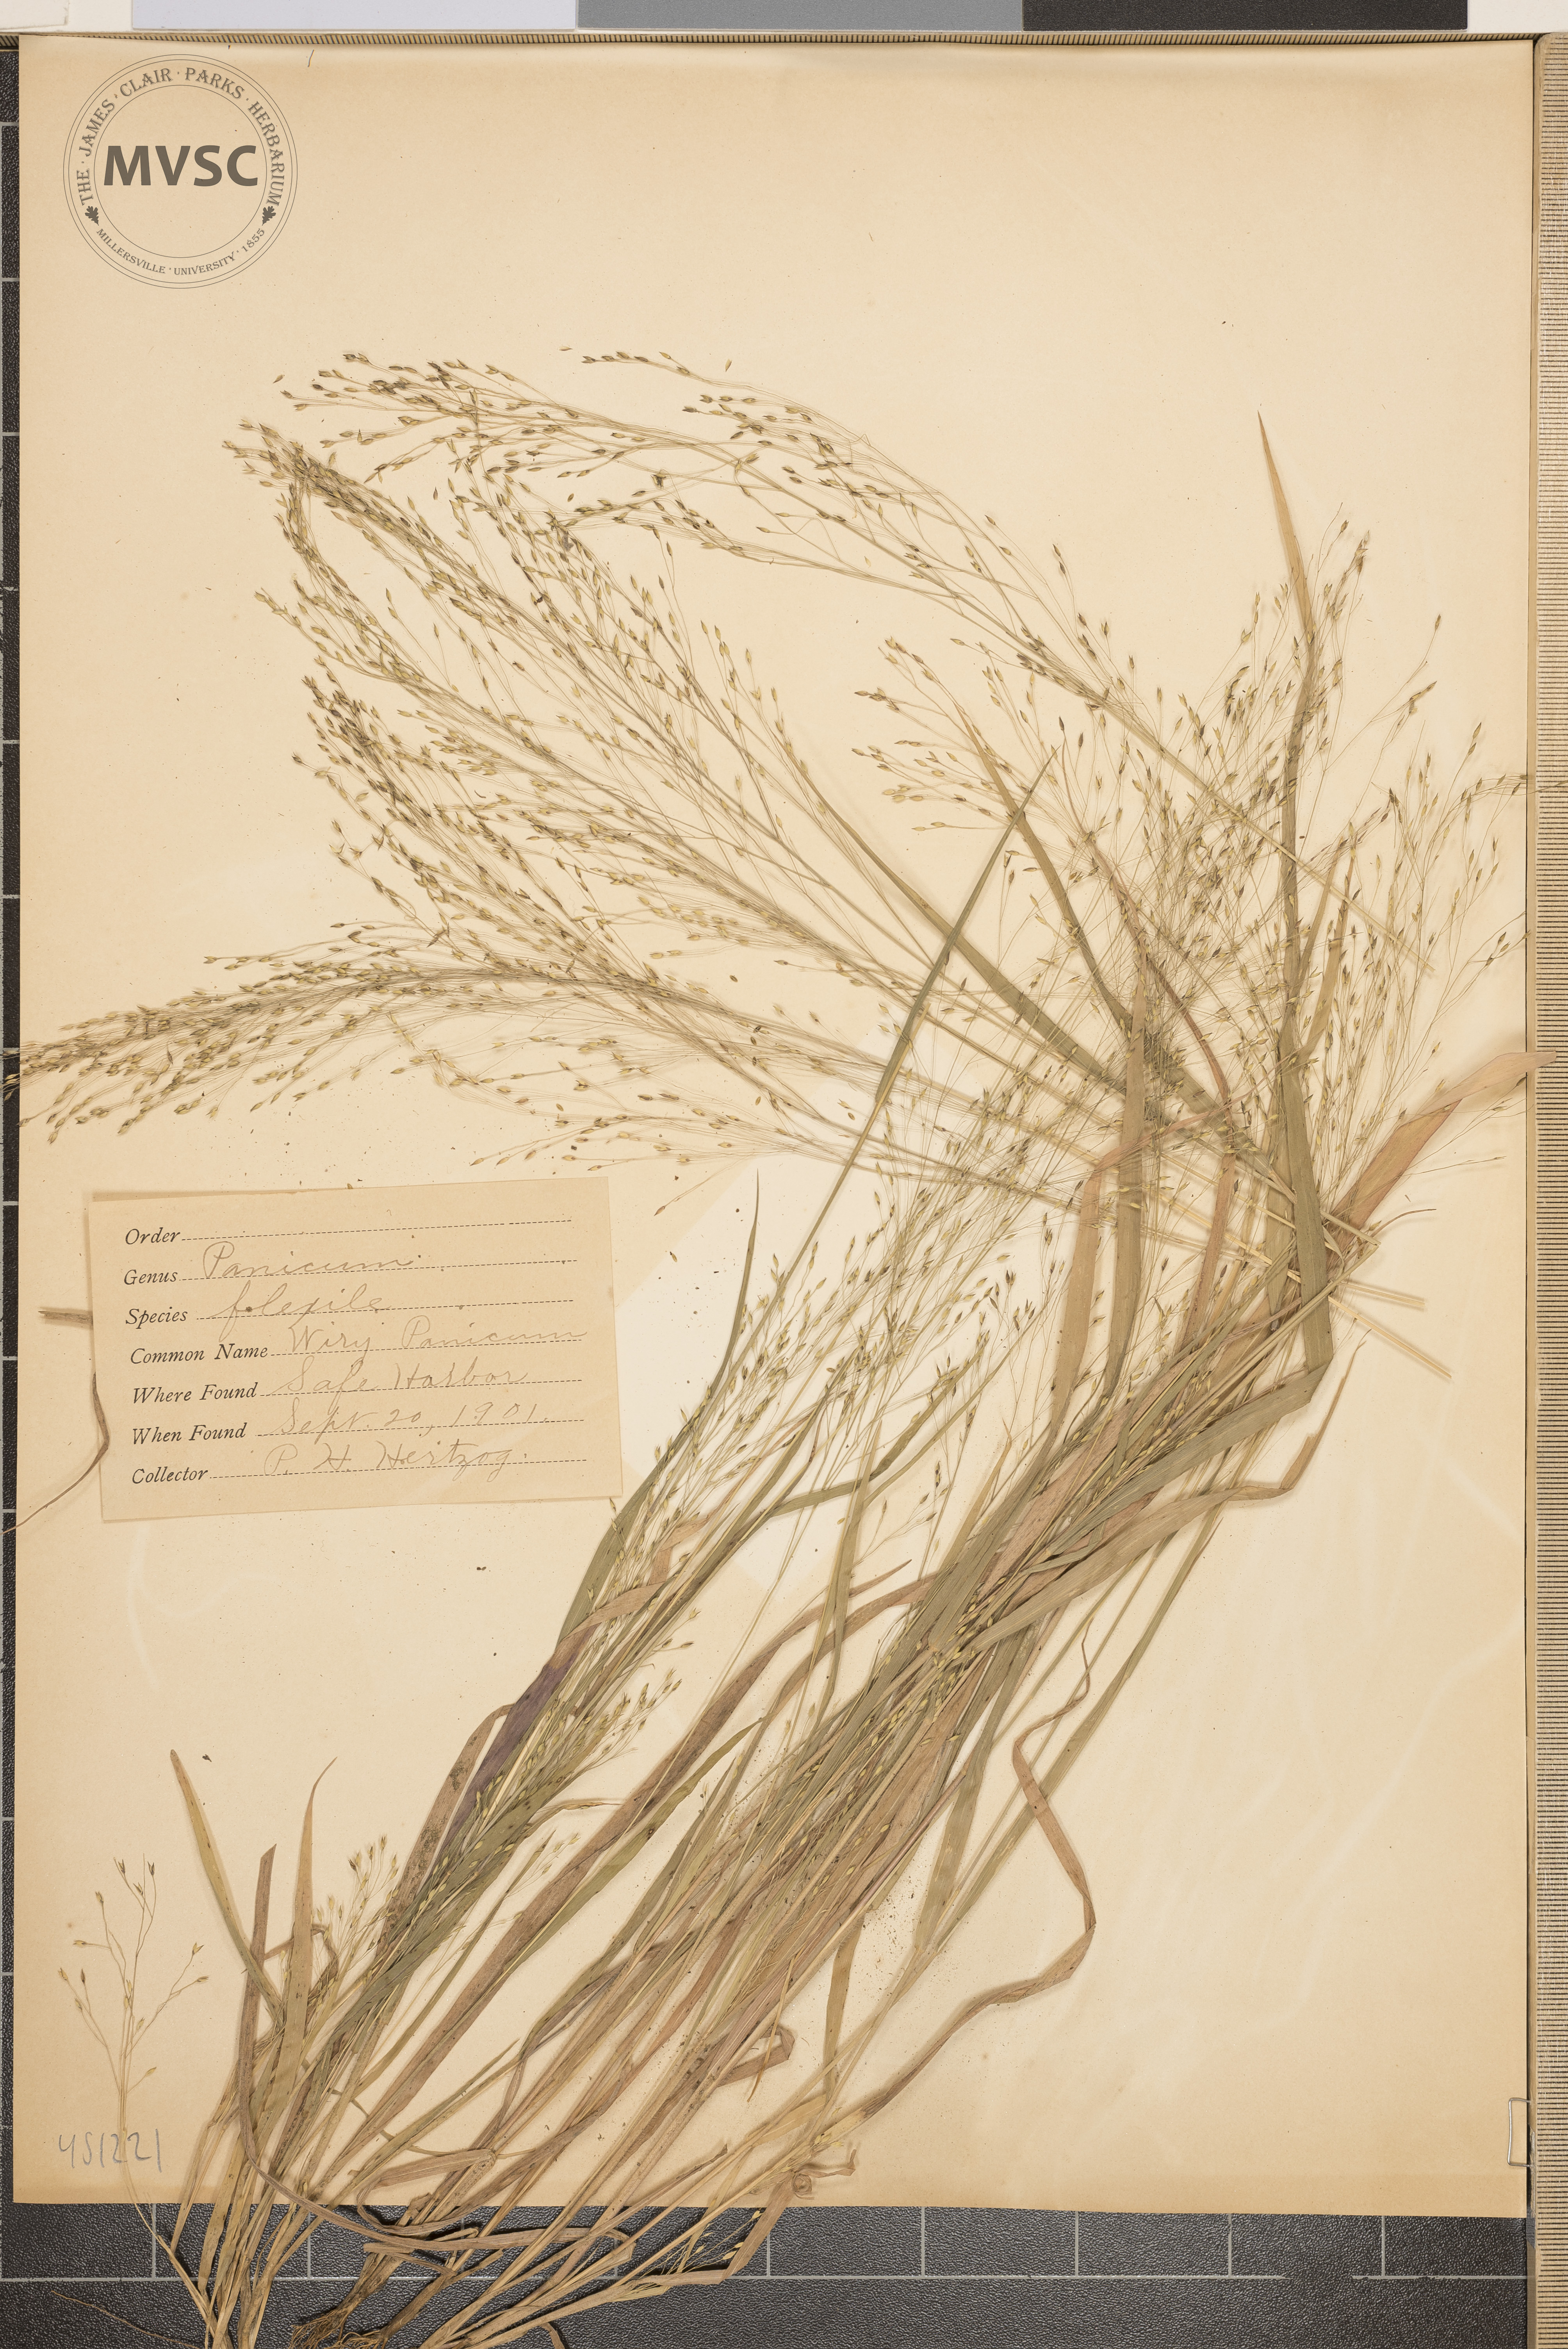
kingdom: Plantae
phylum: Tracheophyta
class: Liliopsida
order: Poales
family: Poaceae
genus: Panicum
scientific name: Panicum flexile
